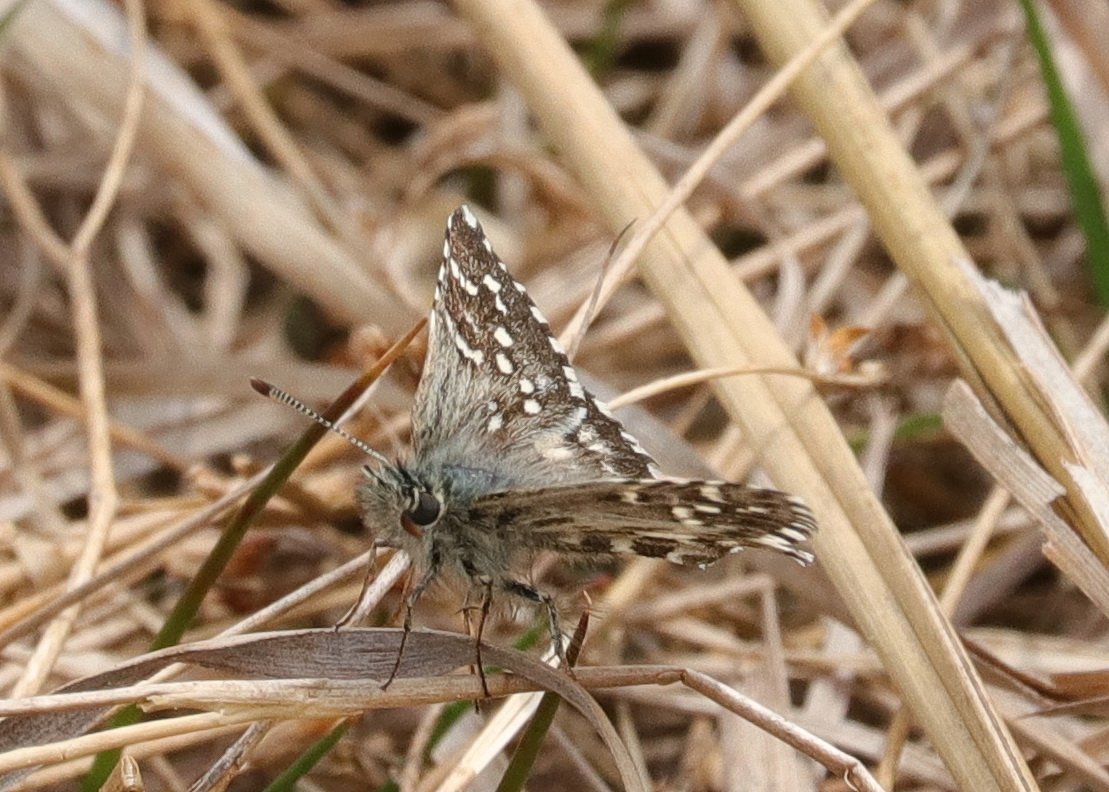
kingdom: Animalia
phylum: Arthropoda
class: Insecta
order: Lepidoptera
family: Hesperiidae
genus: Pyrgus
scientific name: Pyrgus centaureae
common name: Grizzled Skipper
